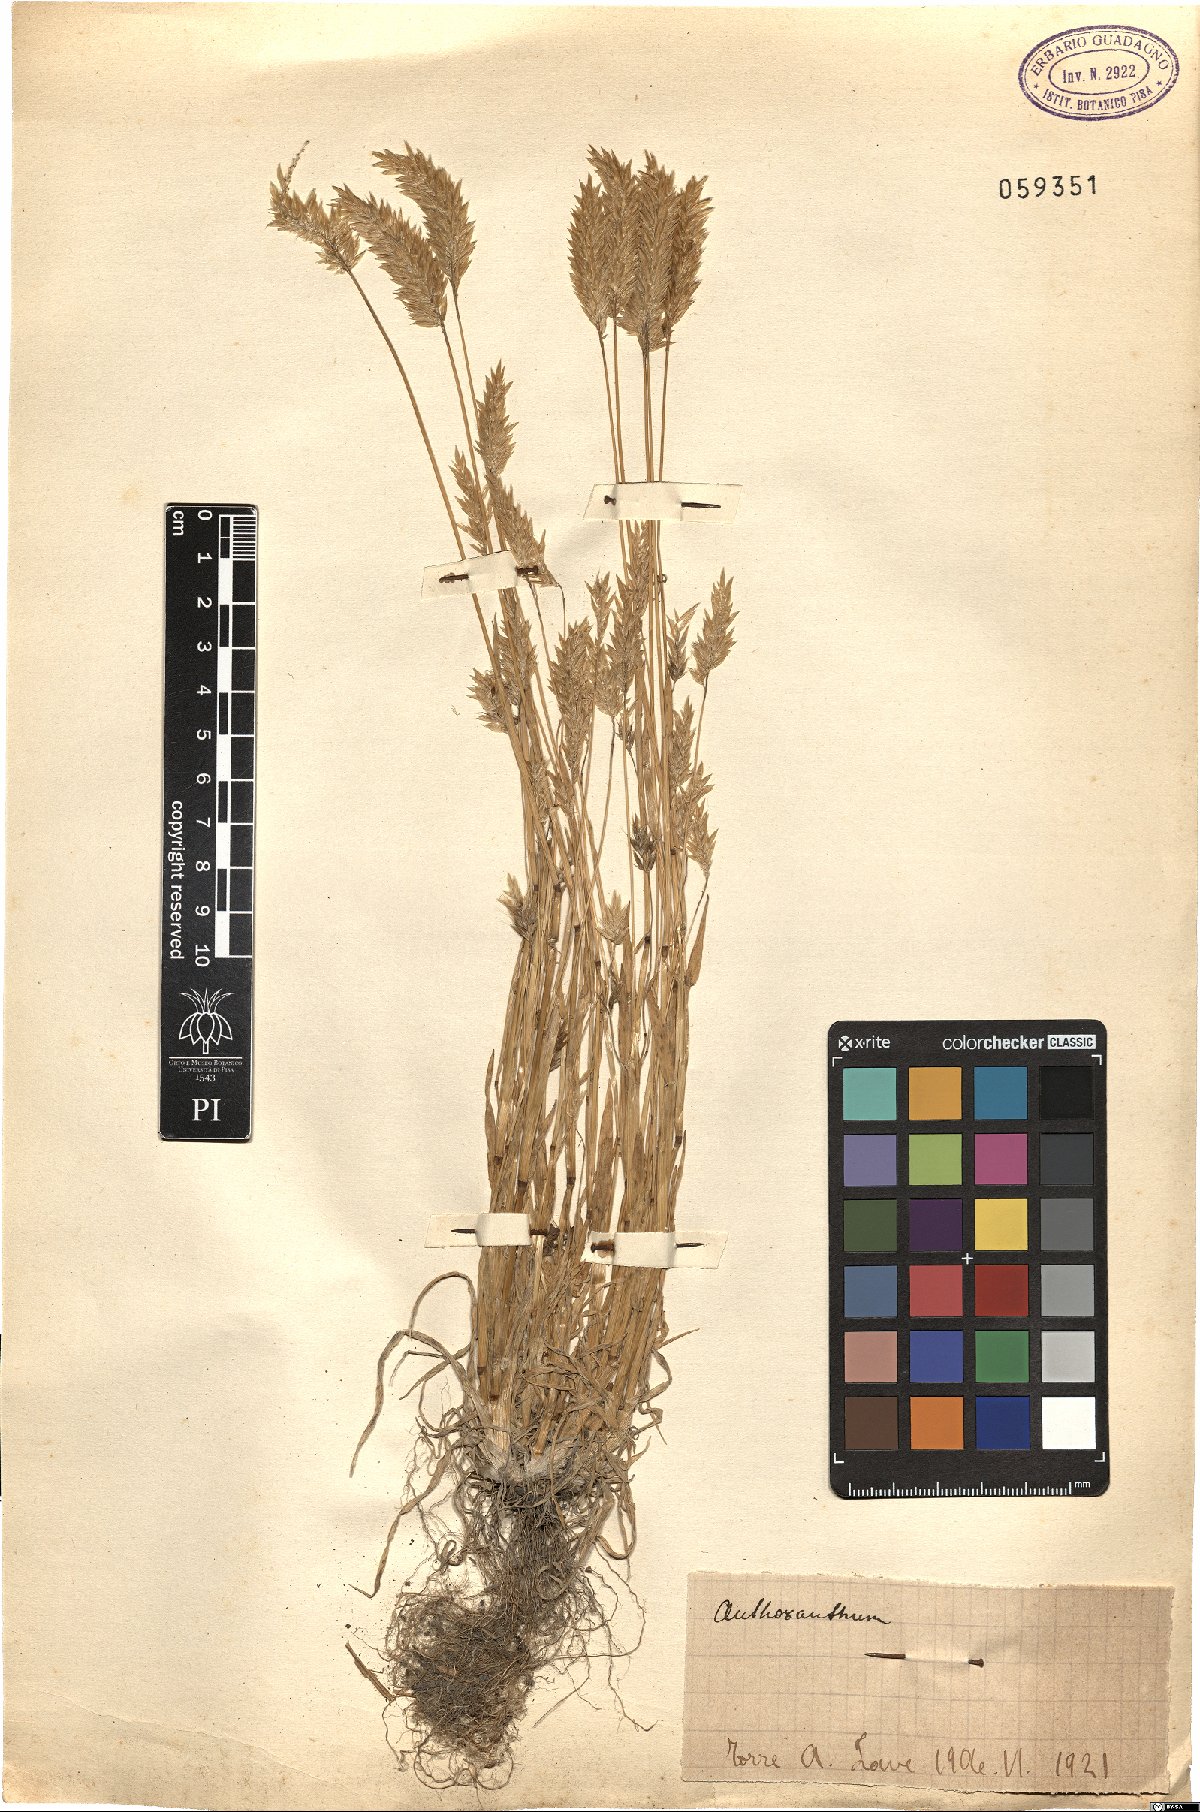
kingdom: Plantae
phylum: Tracheophyta
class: Liliopsida
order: Poales
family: Poaceae
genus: Anthoxanthum
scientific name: Anthoxanthum
